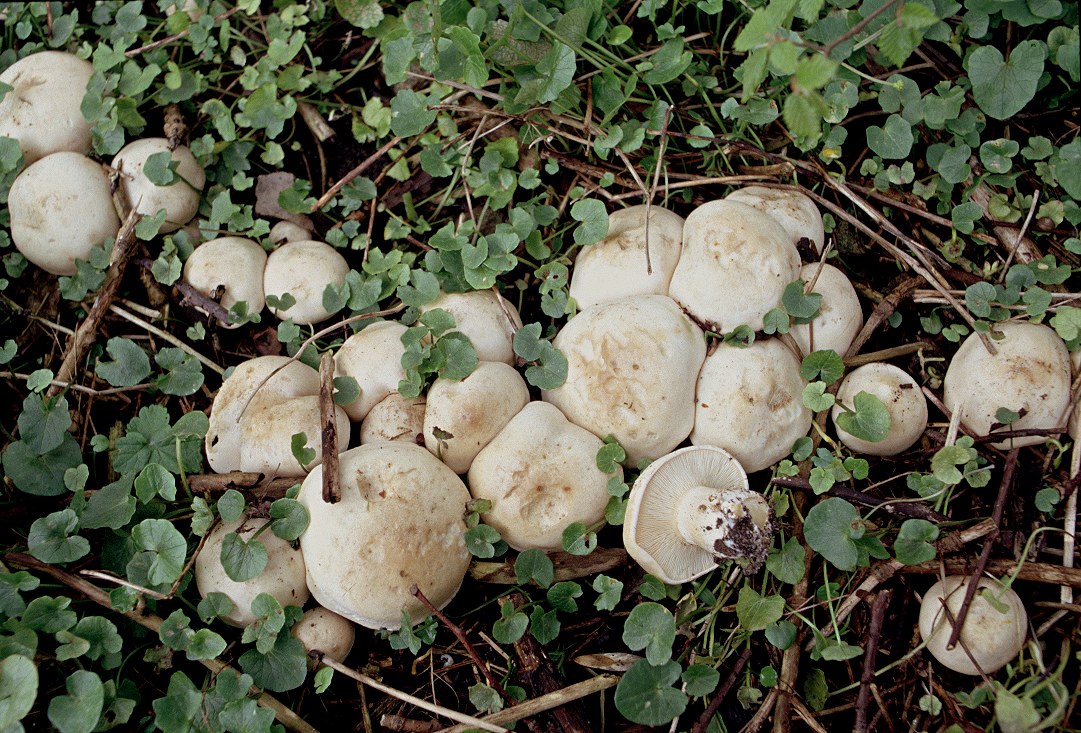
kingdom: Fungi
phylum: Basidiomycota
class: Agaricomycetes
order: Agaricales
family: Lyophyllaceae
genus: Calocybe
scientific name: Calocybe gambosa
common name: vårmusseron
